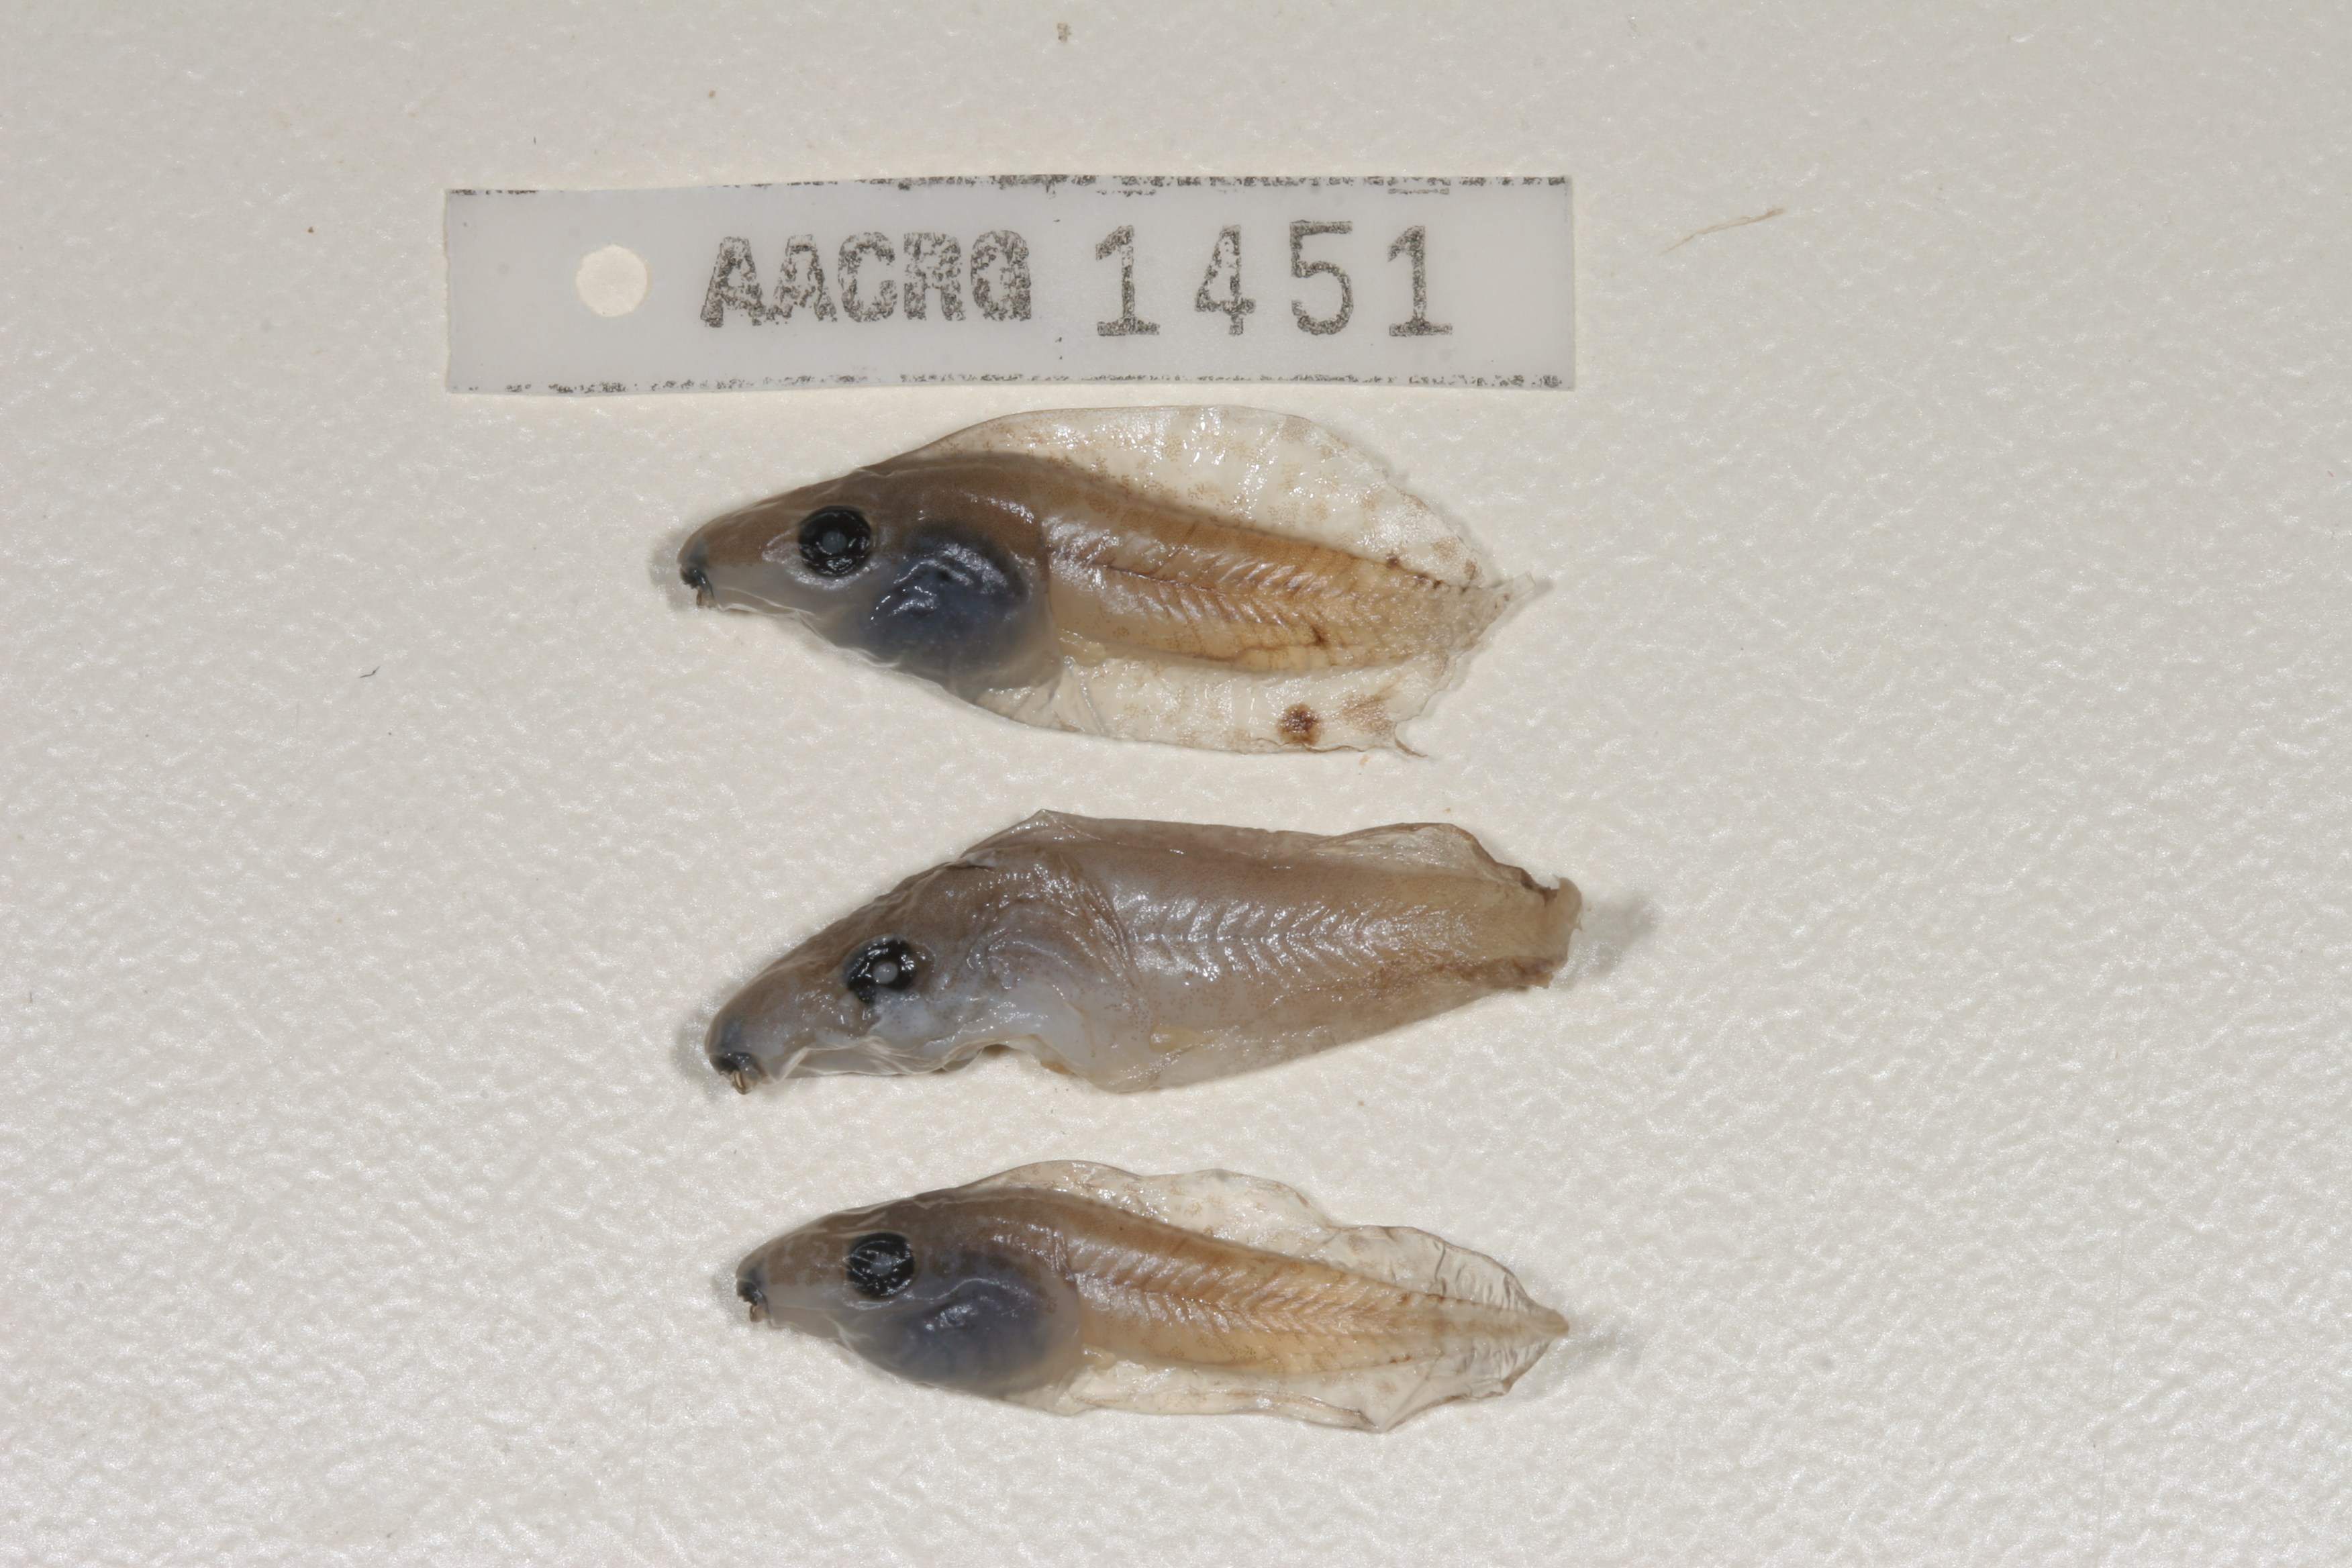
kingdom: Animalia
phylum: Chordata
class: Amphibia
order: Anura
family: Hyperoliidae
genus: Kassina
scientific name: Kassina senegalensis
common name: Senegal land frog
